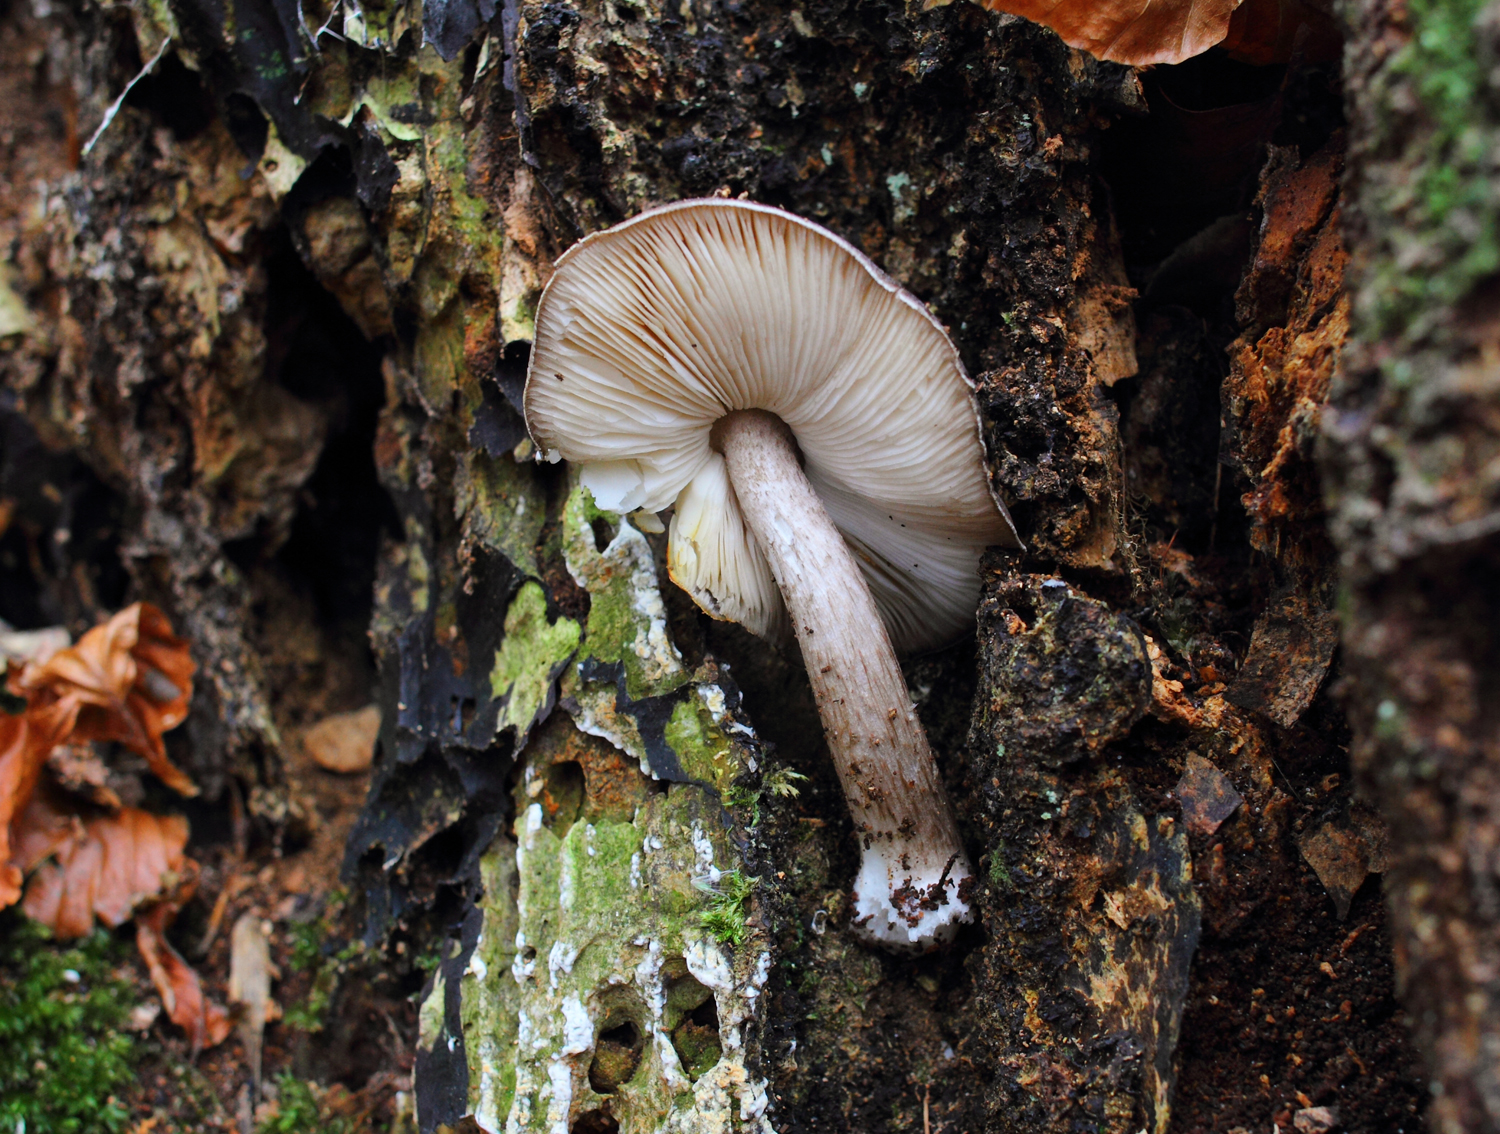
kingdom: Fungi
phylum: Basidiomycota
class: Agaricomycetes
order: Agaricales
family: Pluteaceae
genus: Pluteus
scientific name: Pluteus cervinus
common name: sodfarvet skærmhat
